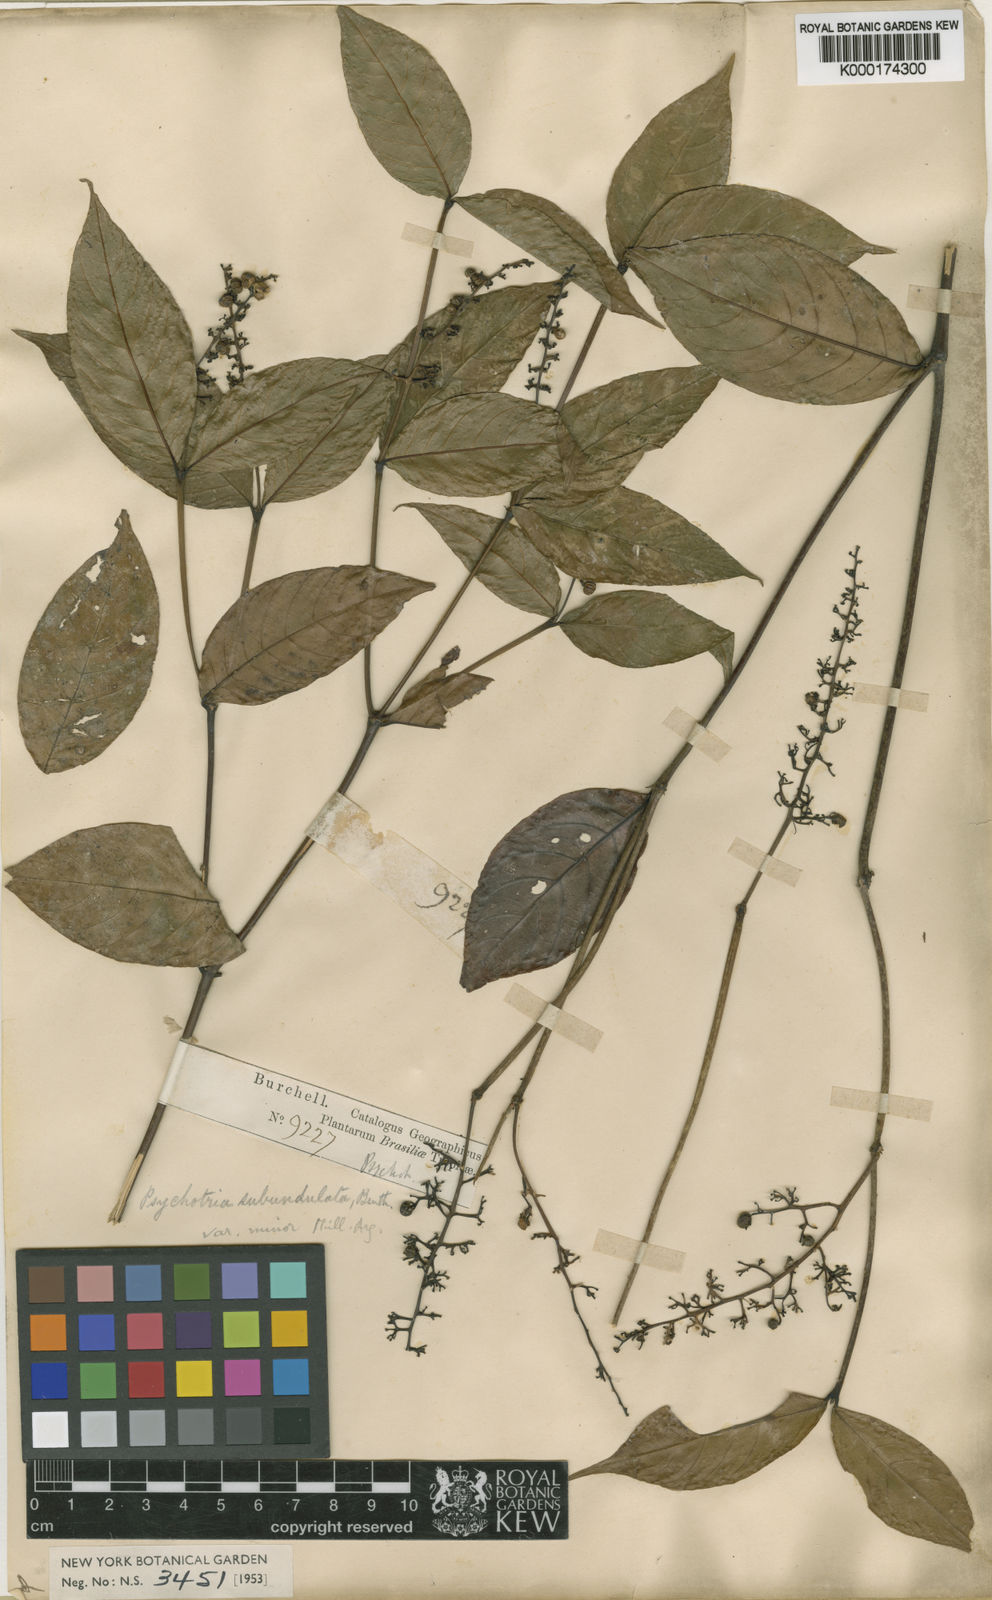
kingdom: Plantae
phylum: Tracheophyta
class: Magnoliopsida
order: Gentianales
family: Rubiaceae
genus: Palicourea
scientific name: Palicourea goyazensis
